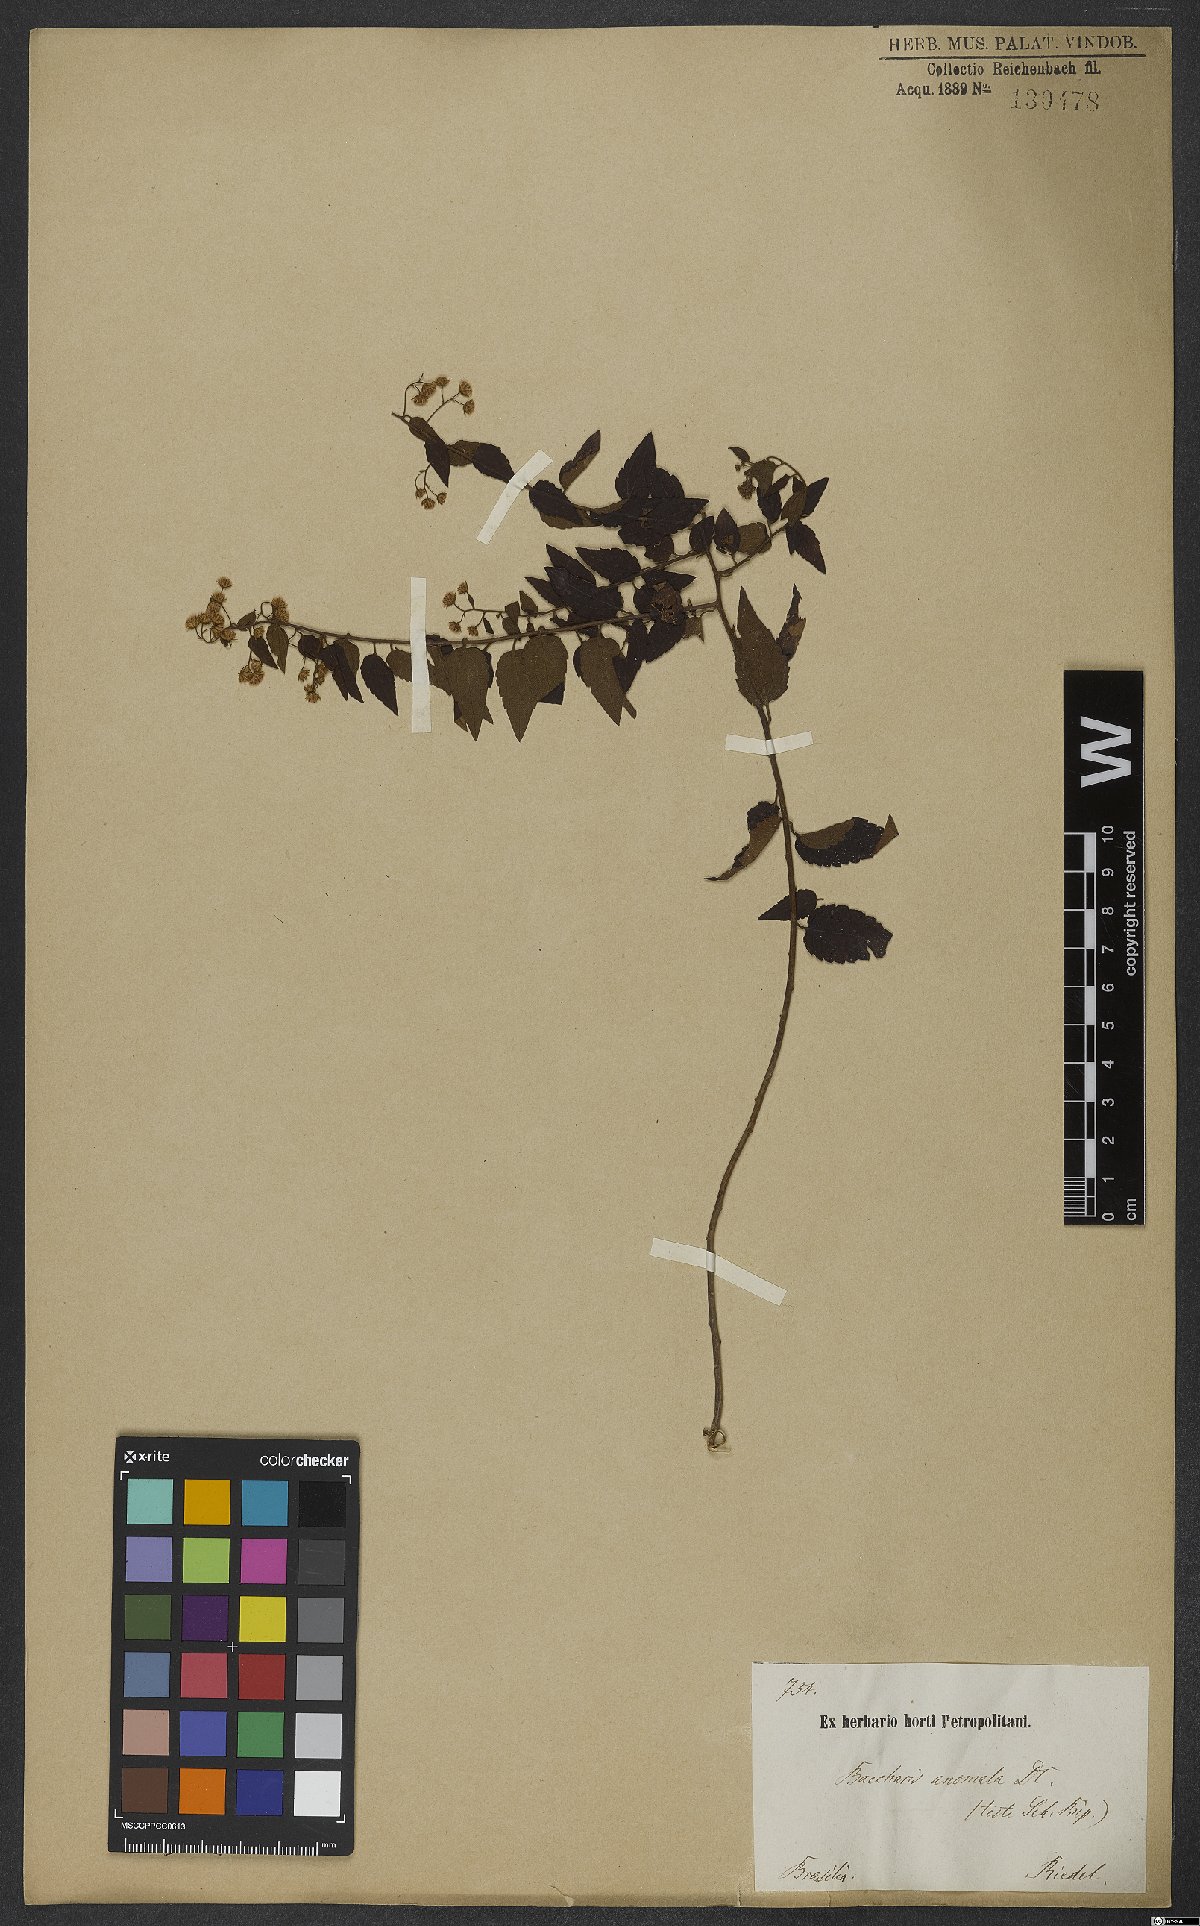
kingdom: Plantae
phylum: Tracheophyta
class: Magnoliopsida
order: Asterales
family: Asteraceae
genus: Baccharis
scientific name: Baccharis anomala
